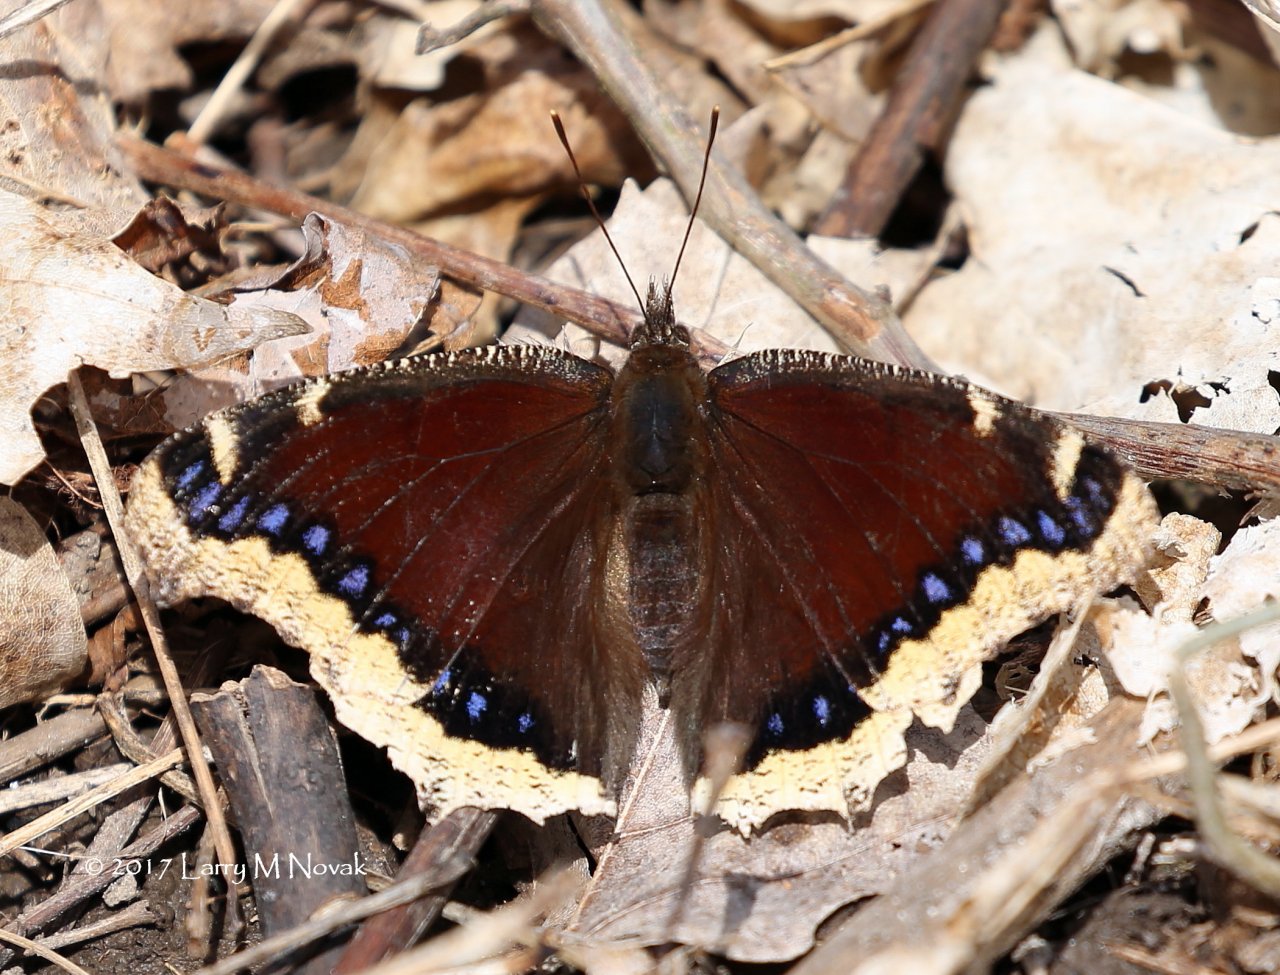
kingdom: Animalia
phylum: Arthropoda
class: Insecta
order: Lepidoptera
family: Nymphalidae
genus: Nymphalis
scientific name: Nymphalis antiopa
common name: Mourning Cloak
